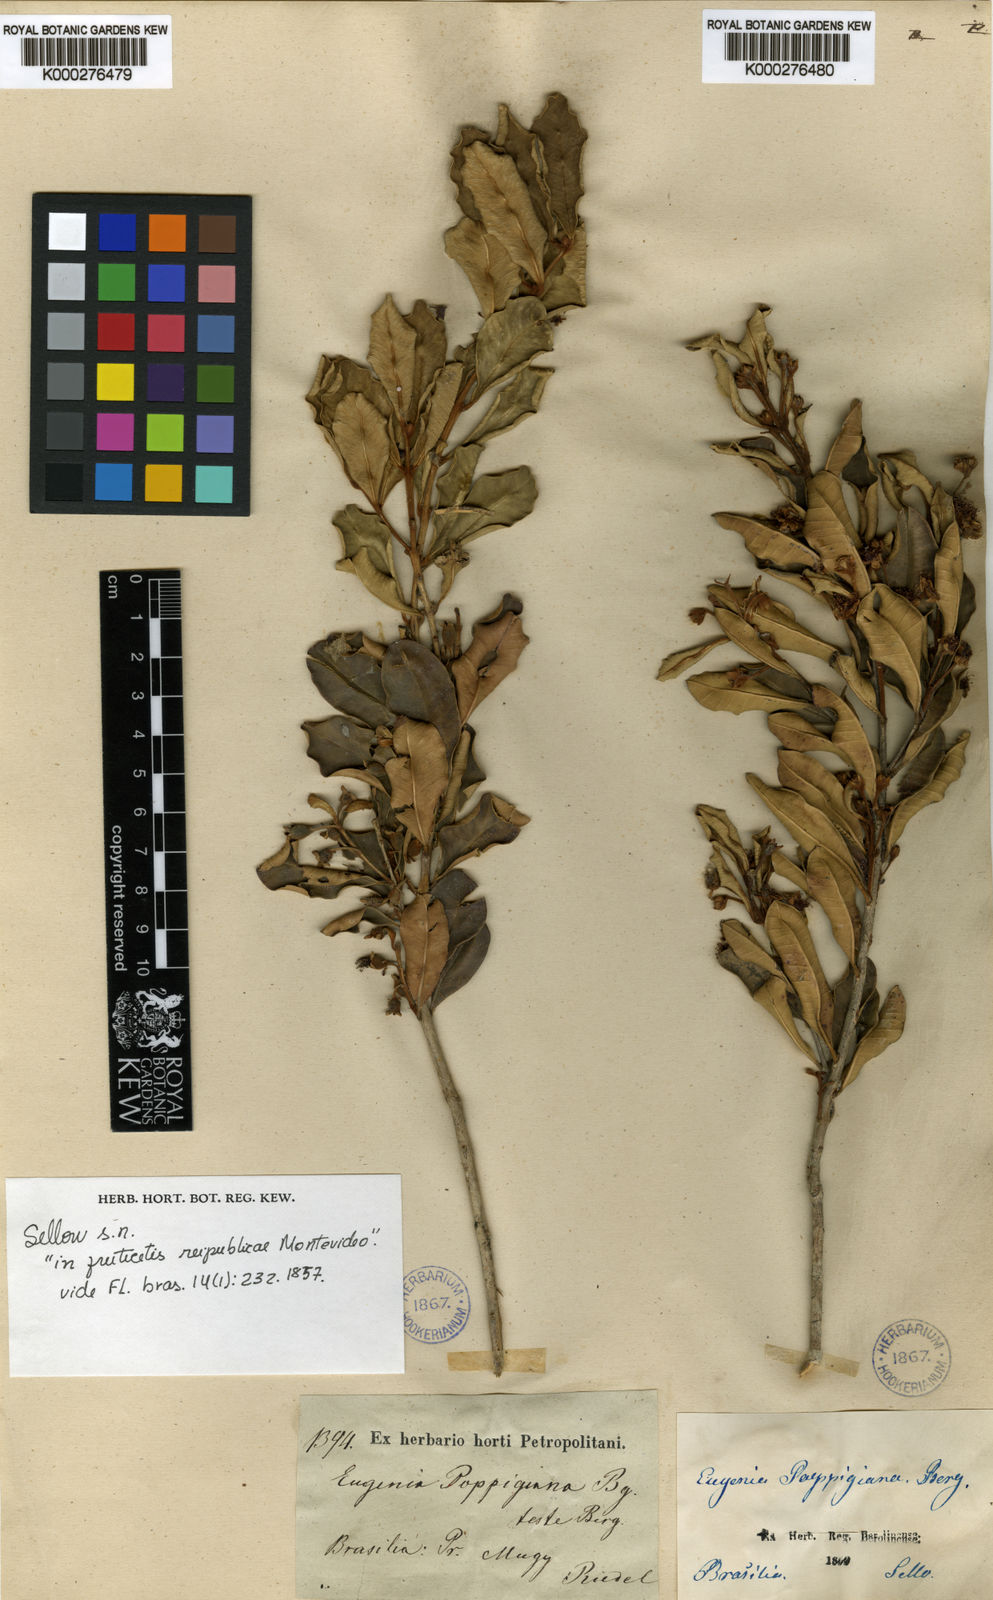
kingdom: Plantae
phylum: Tracheophyta
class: Magnoliopsida
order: Myrtales
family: Myrtaceae
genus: Myrceugenia
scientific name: Myrceugenia rufescens
